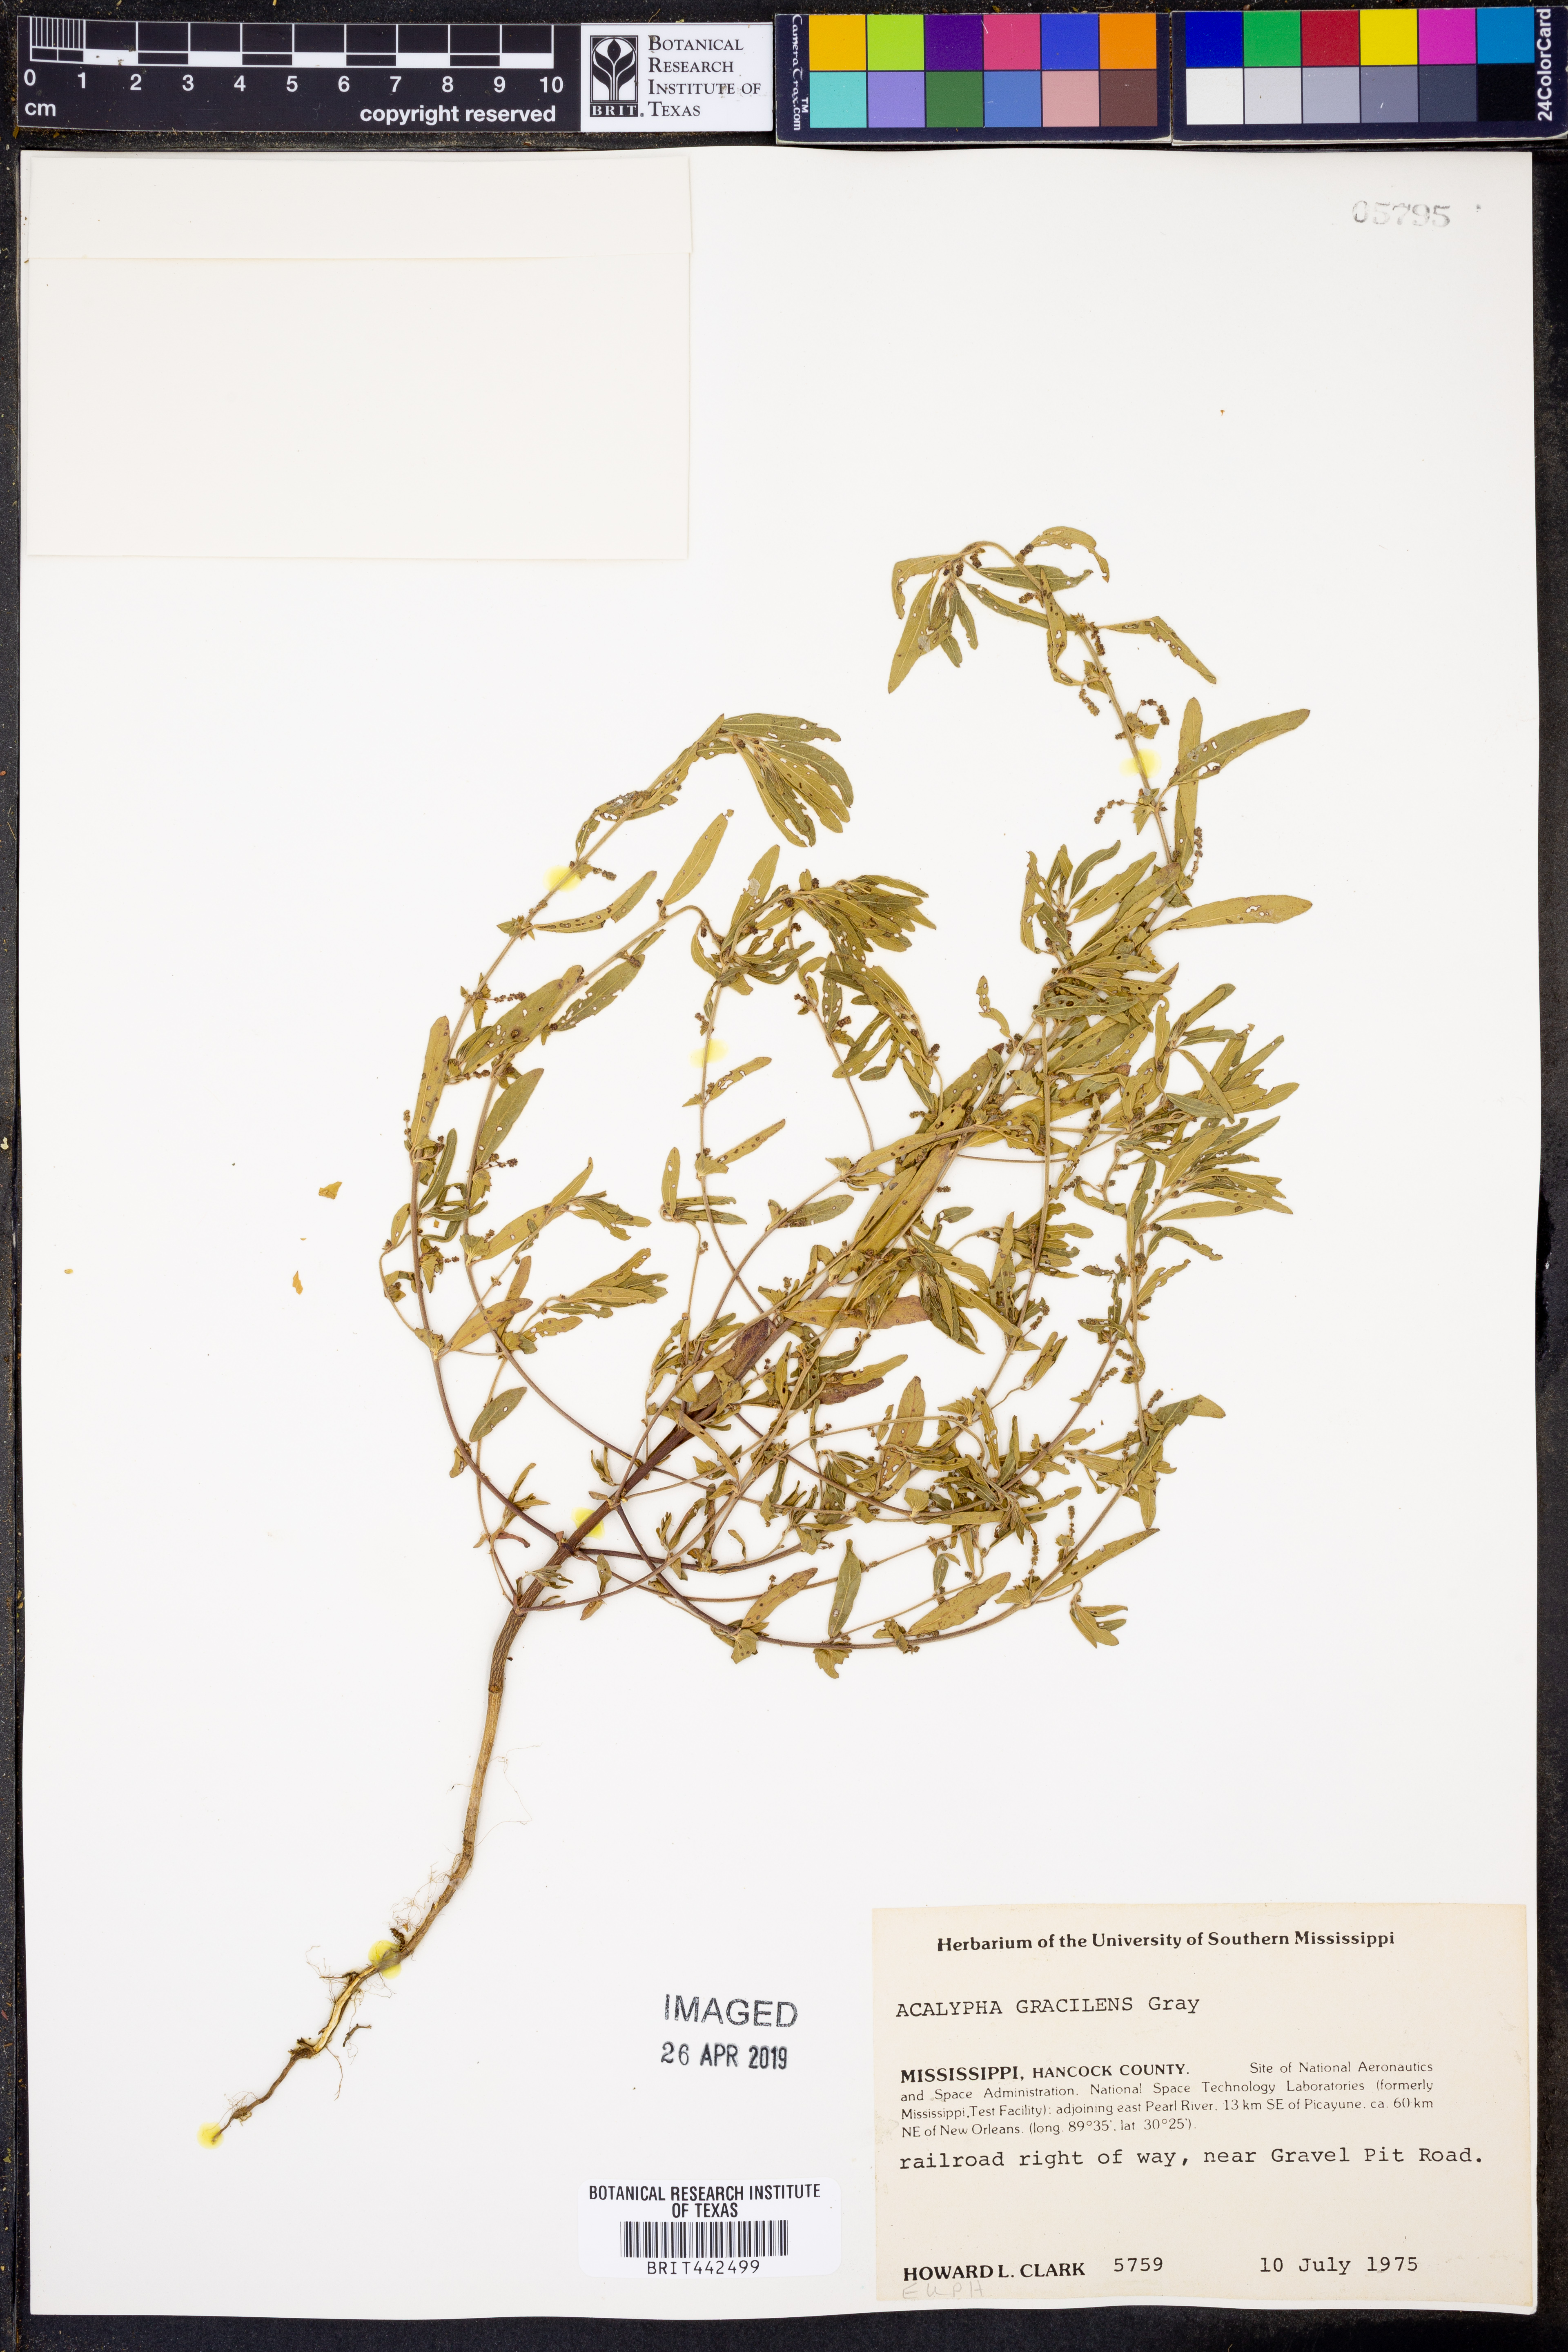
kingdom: Plantae
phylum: Tracheophyta
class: Magnoliopsida
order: Malpighiales
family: Euphorbiaceae
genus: Acalypha
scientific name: Acalypha gracilens
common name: Slender three-seeded mercury
